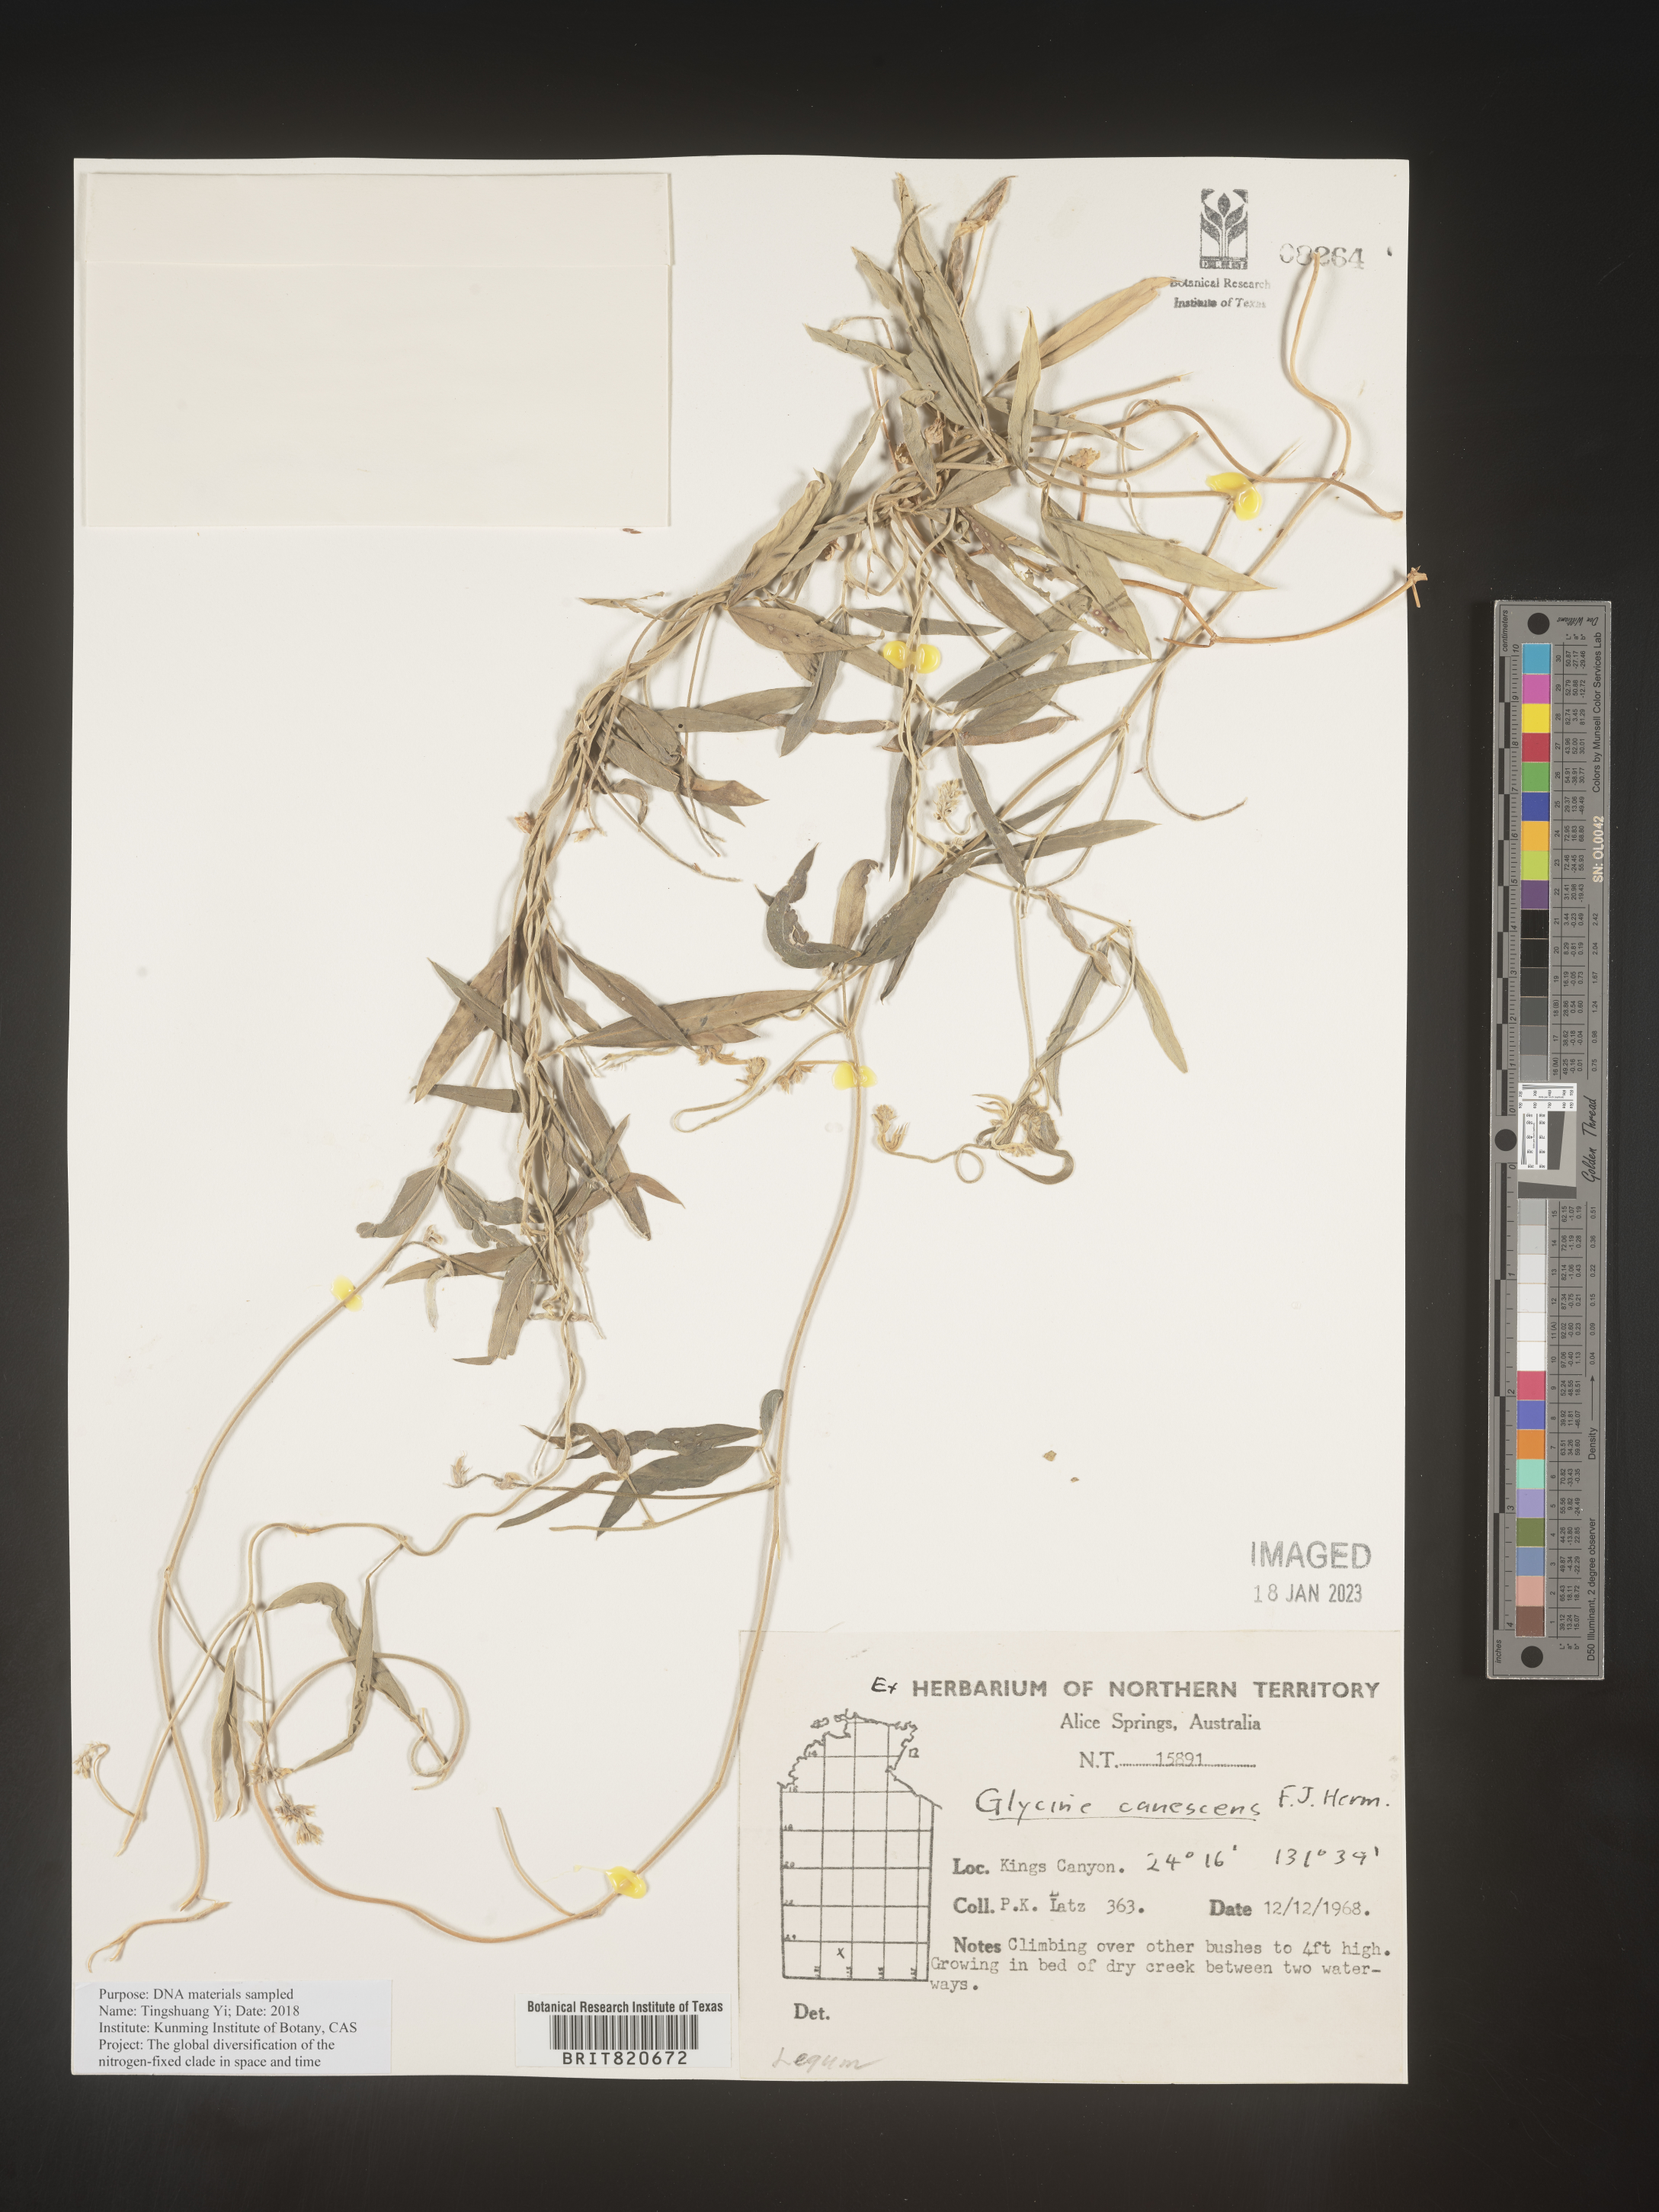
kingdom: Plantae
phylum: Tracheophyta
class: Magnoliopsida
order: Fabales
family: Fabaceae
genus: Glycine
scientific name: Glycine
